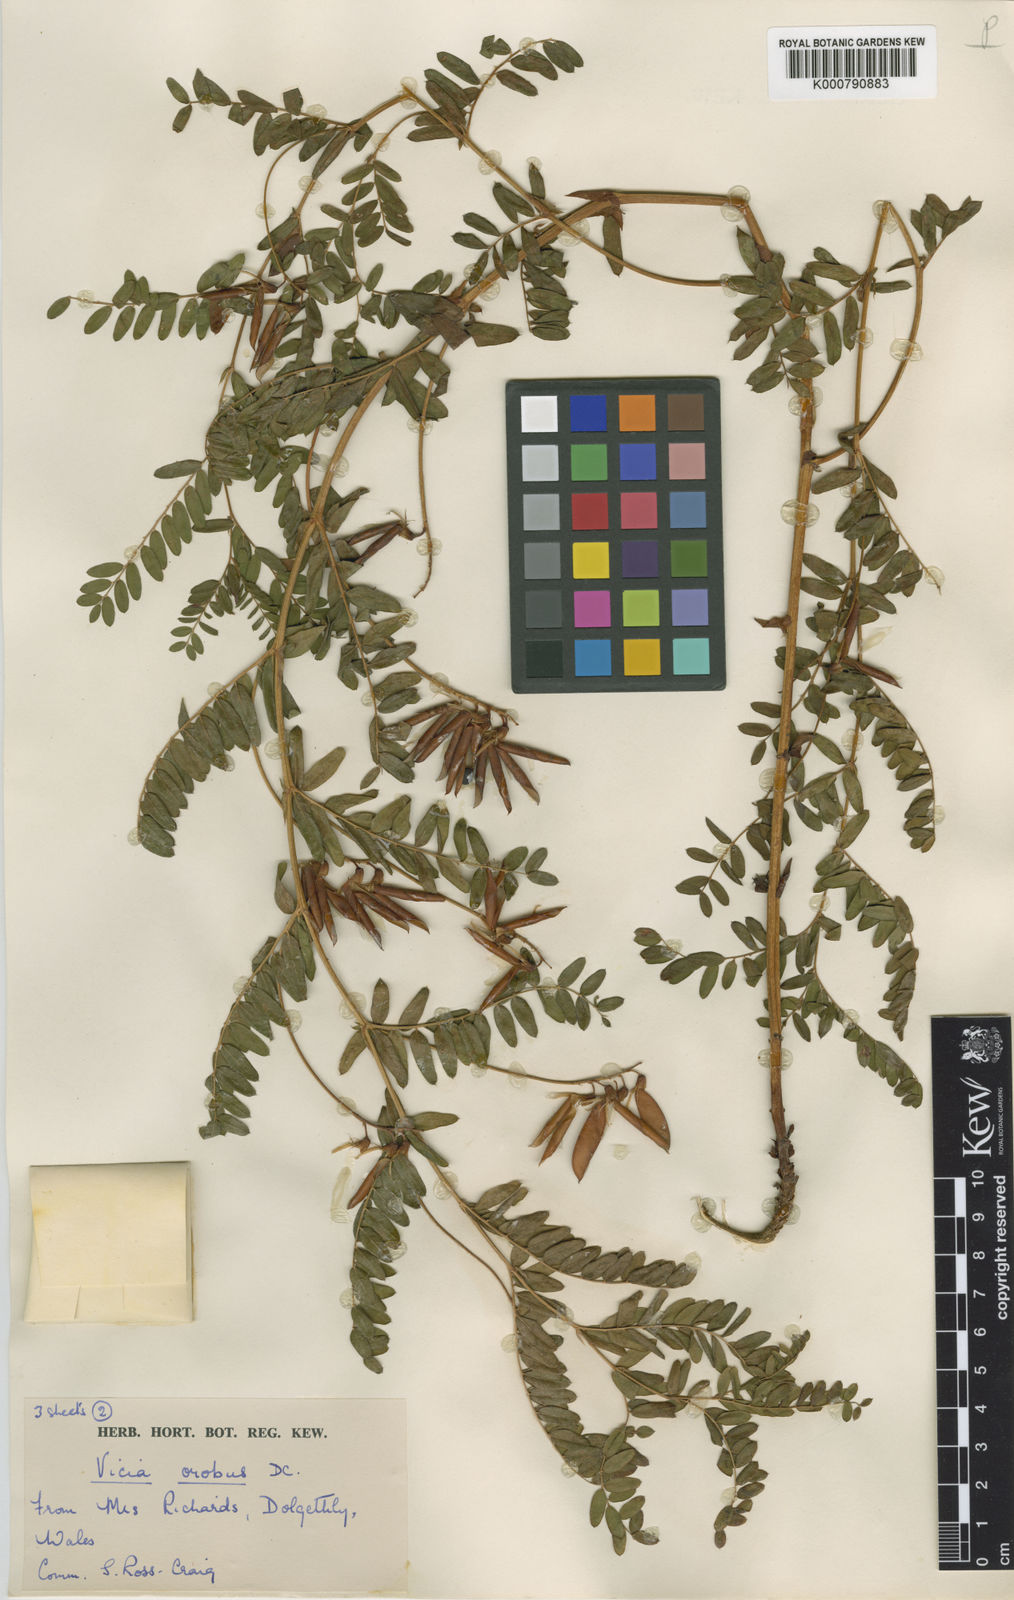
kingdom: Plantae
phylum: Tracheophyta
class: Magnoliopsida
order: Fabales
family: Fabaceae
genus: Vicia
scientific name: Vicia orobus
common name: Wood bitter-vetch
